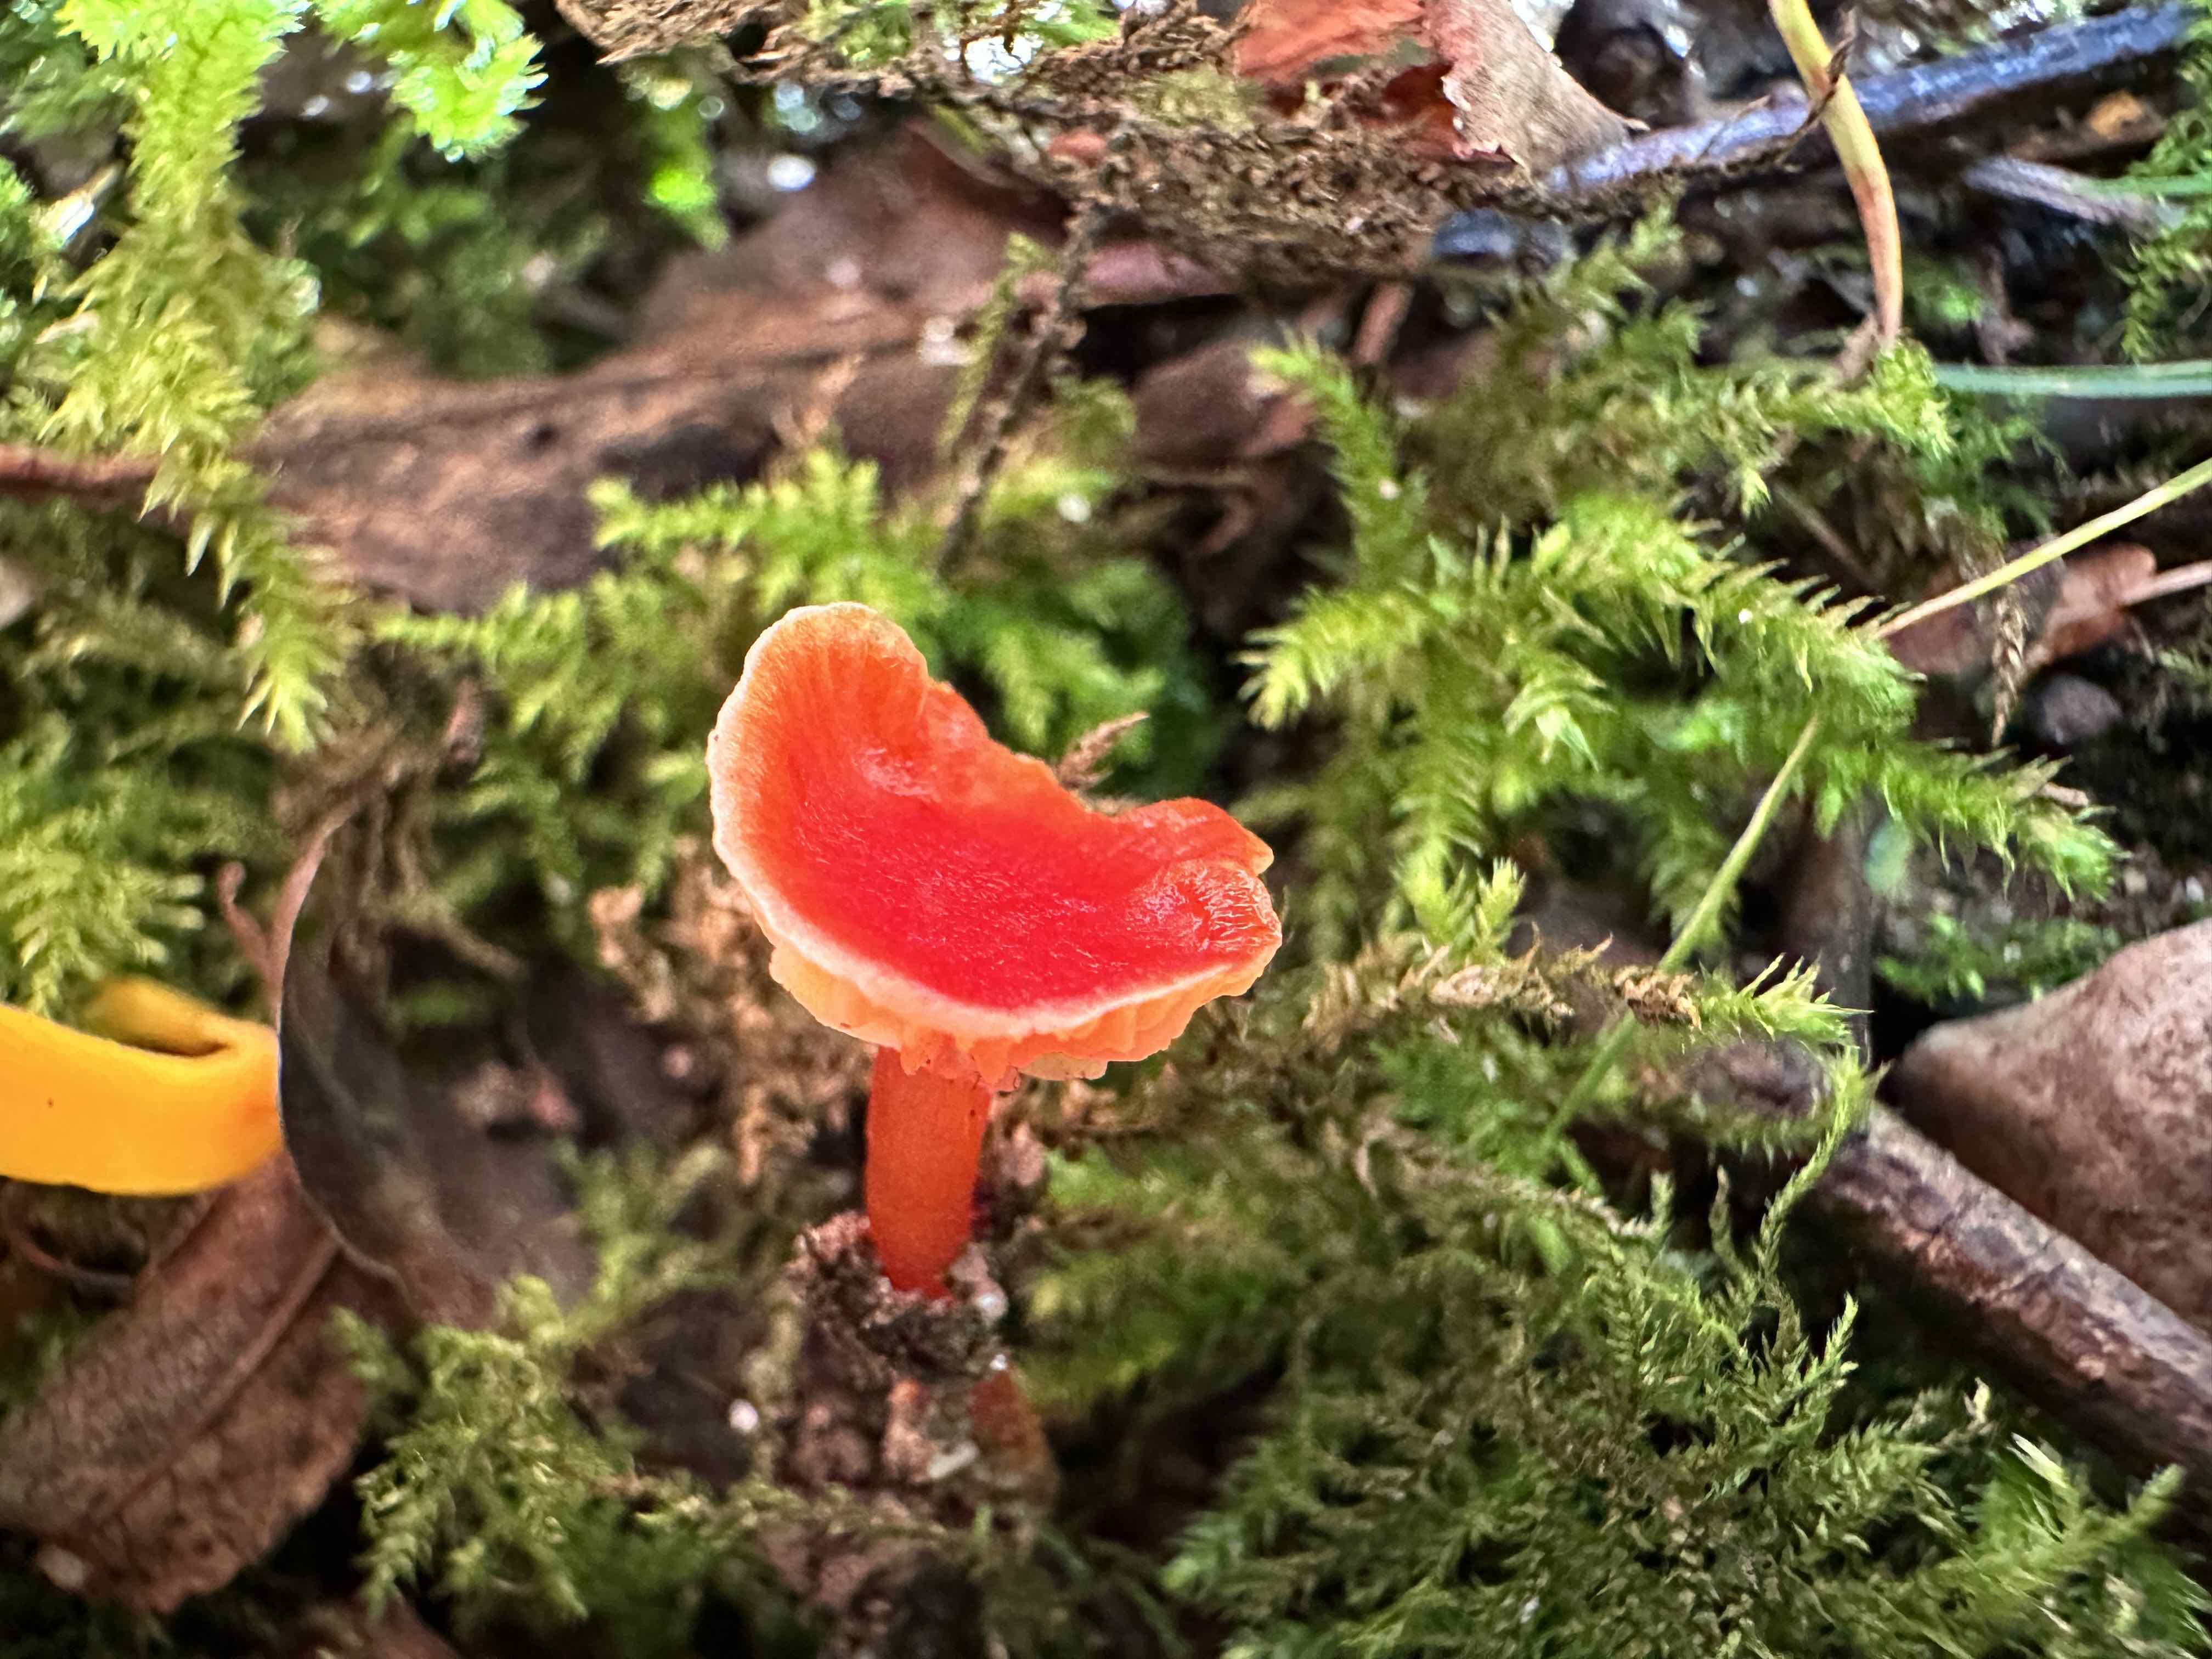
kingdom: Fungi
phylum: Basidiomycota
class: Agaricomycetes
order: Agaricales
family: Hygrophoraceae
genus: Hygrocybe
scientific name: Hygrocybe insipida
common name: liden vokshat
